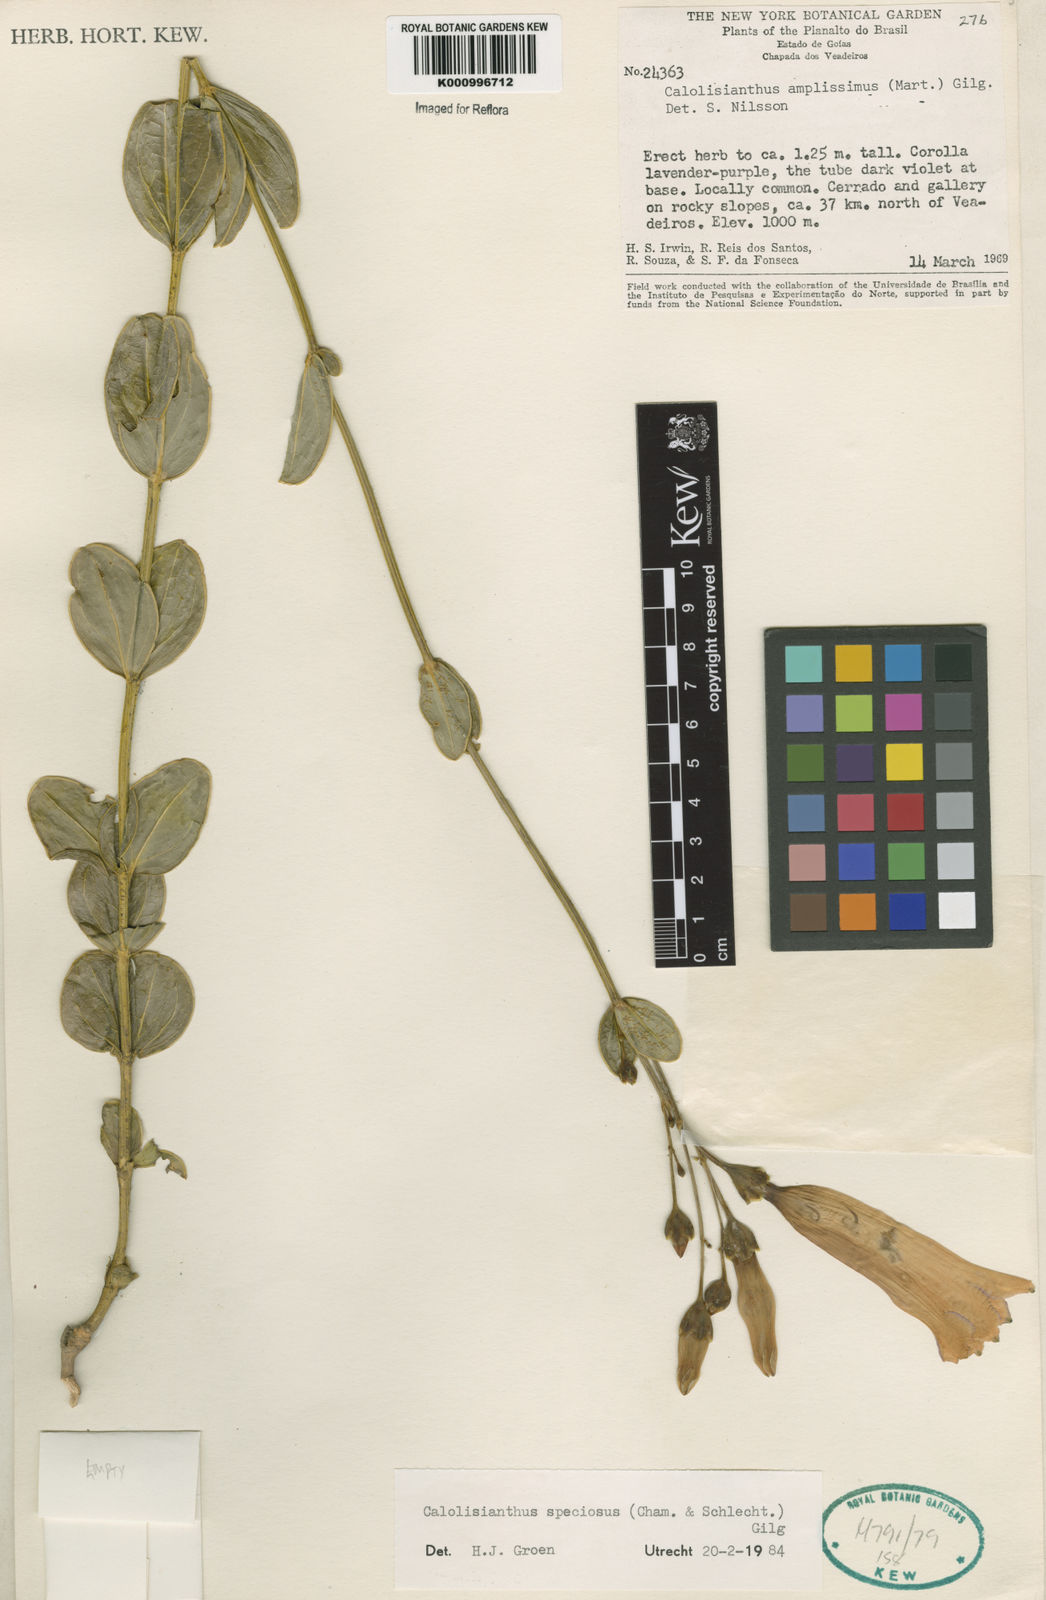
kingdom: Plantae
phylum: Tracheophyta
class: Magnoliopsida
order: Gentianales
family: Gentianaceae
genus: Calolisianthus
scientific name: Calolisianthus speciosus
